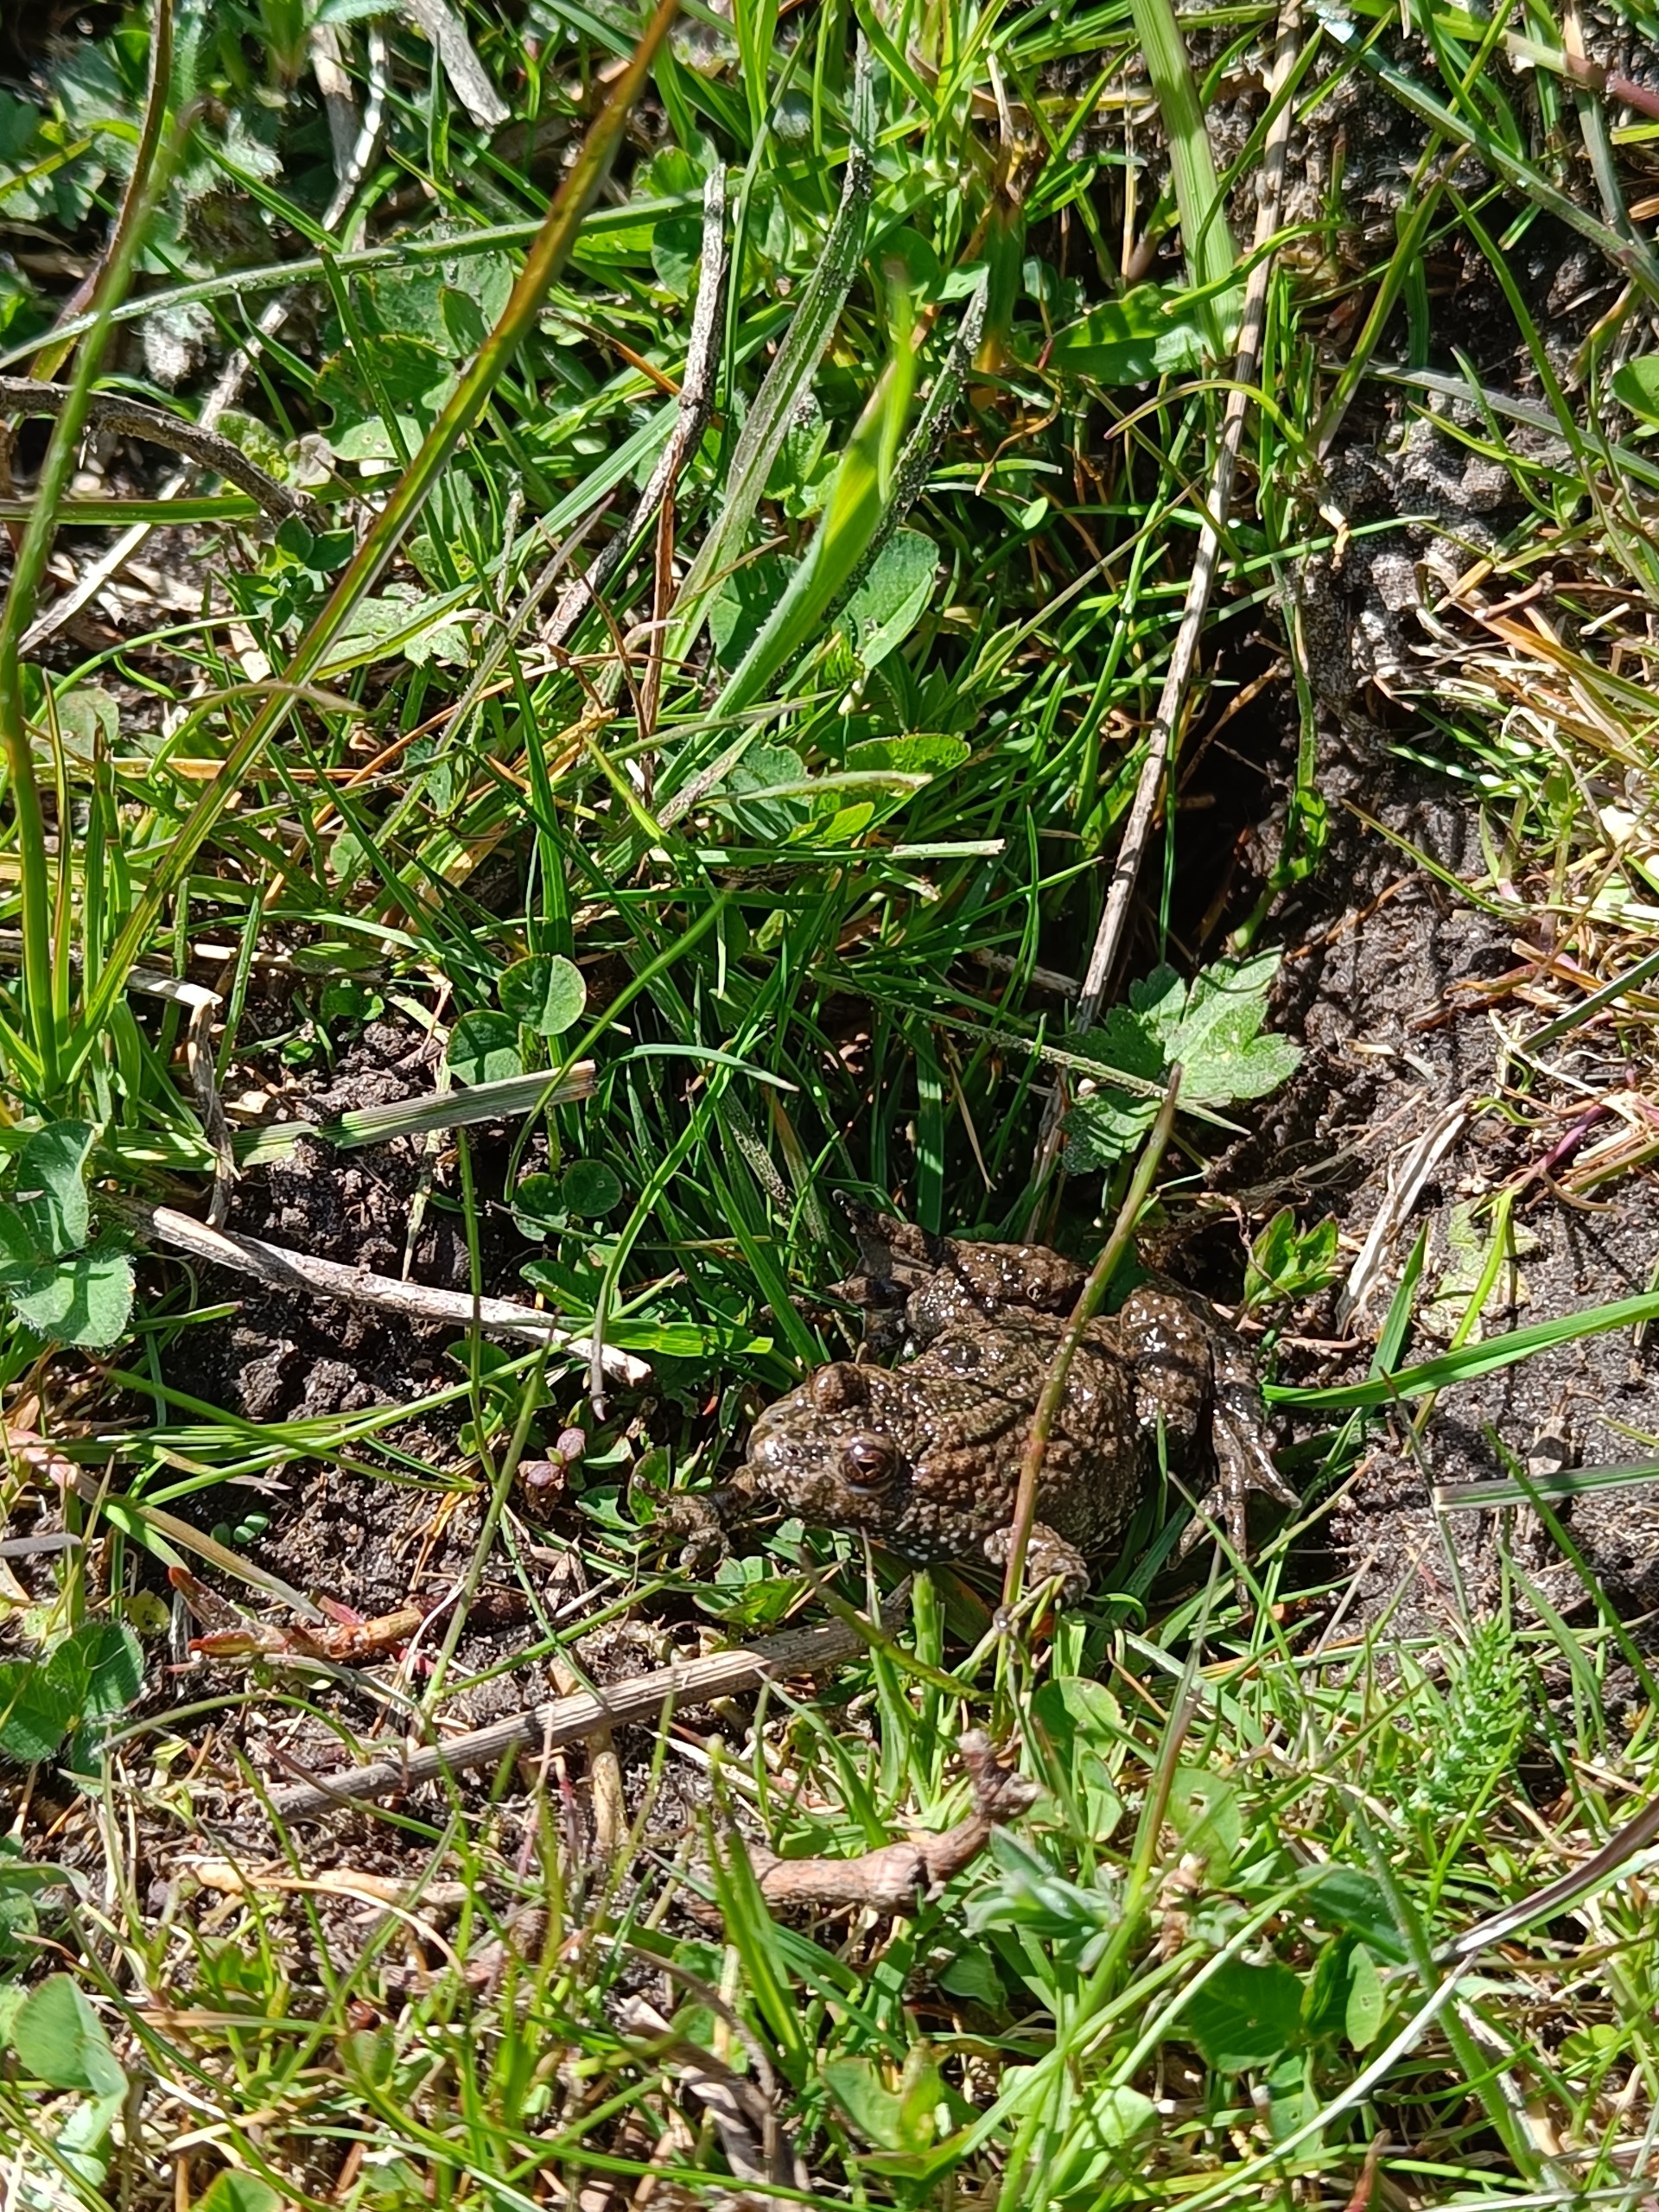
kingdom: Animalia
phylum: Chordata
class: Amphibia
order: Anura
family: Bombinatoridae
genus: Bombina
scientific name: Bombina bombina
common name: Klokkefrø
